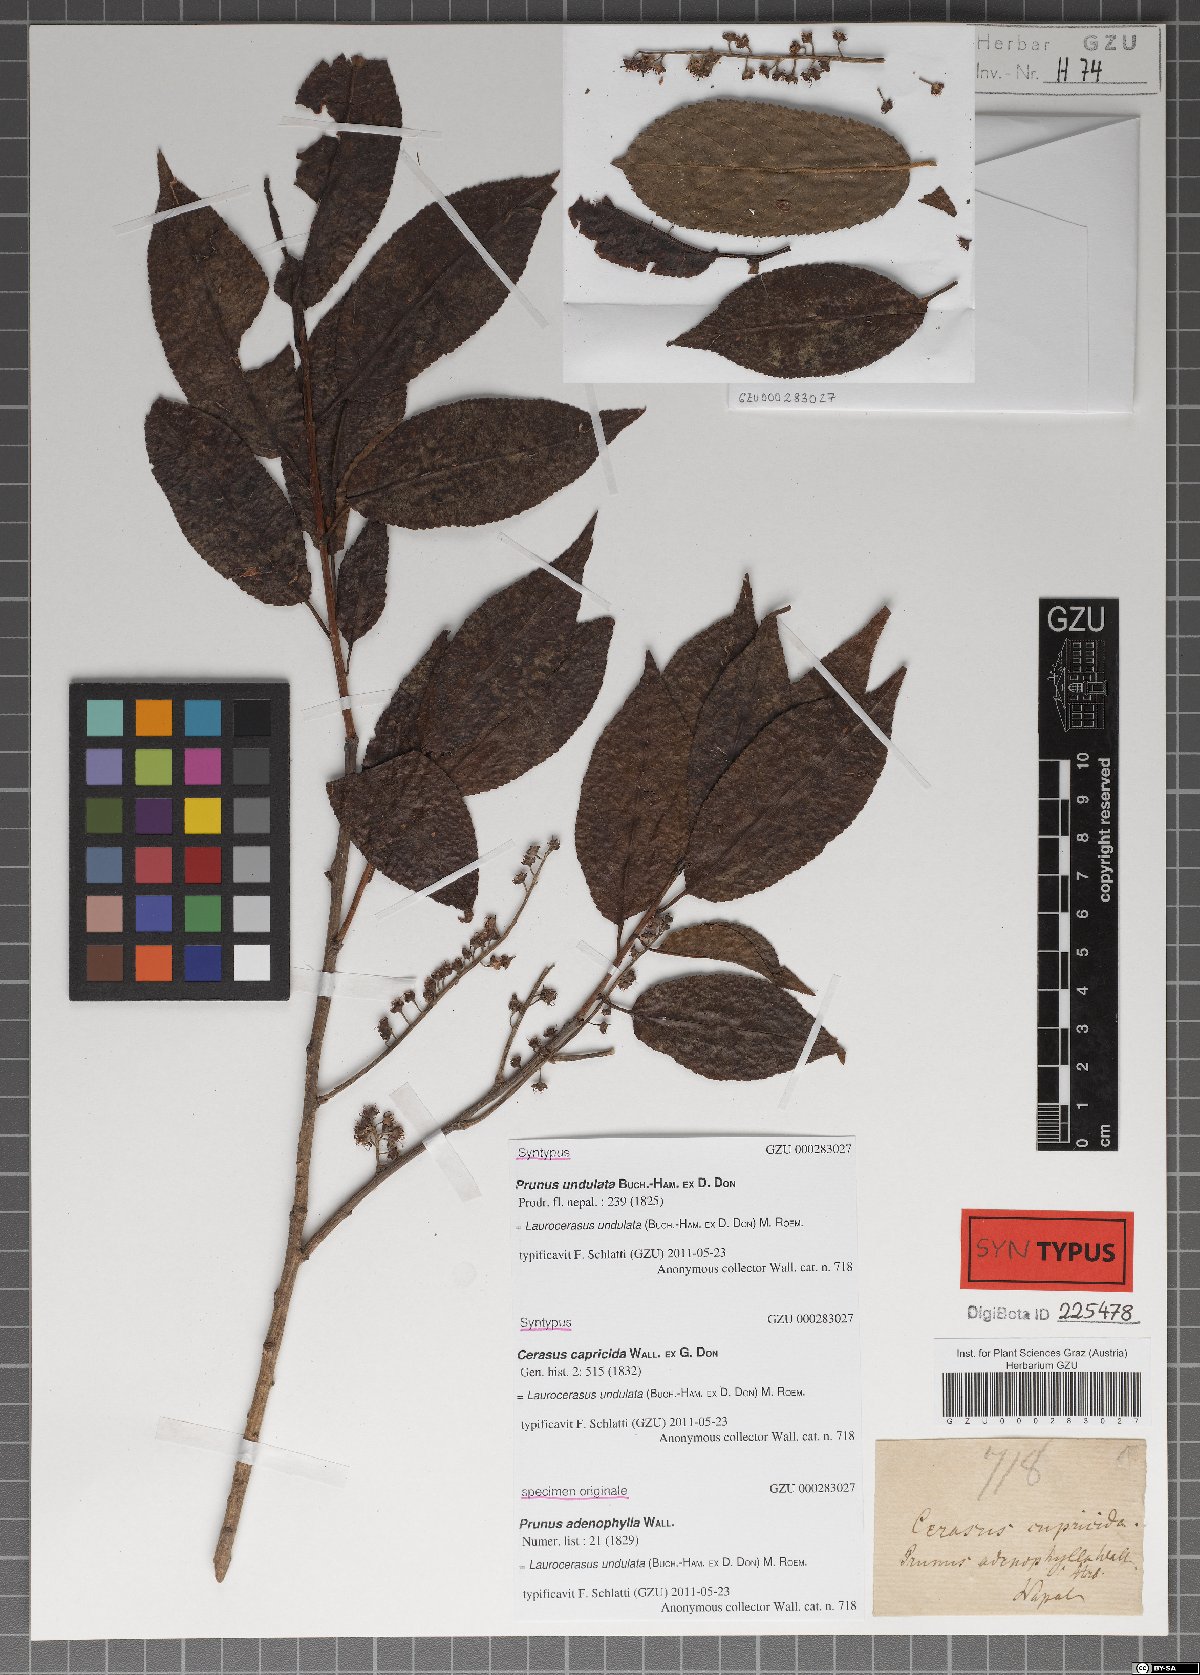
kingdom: Plantae
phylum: Tracheophyta
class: Magnoliopsida
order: Rosales
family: Rosaceae
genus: Prunus
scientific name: Prunus undulata
